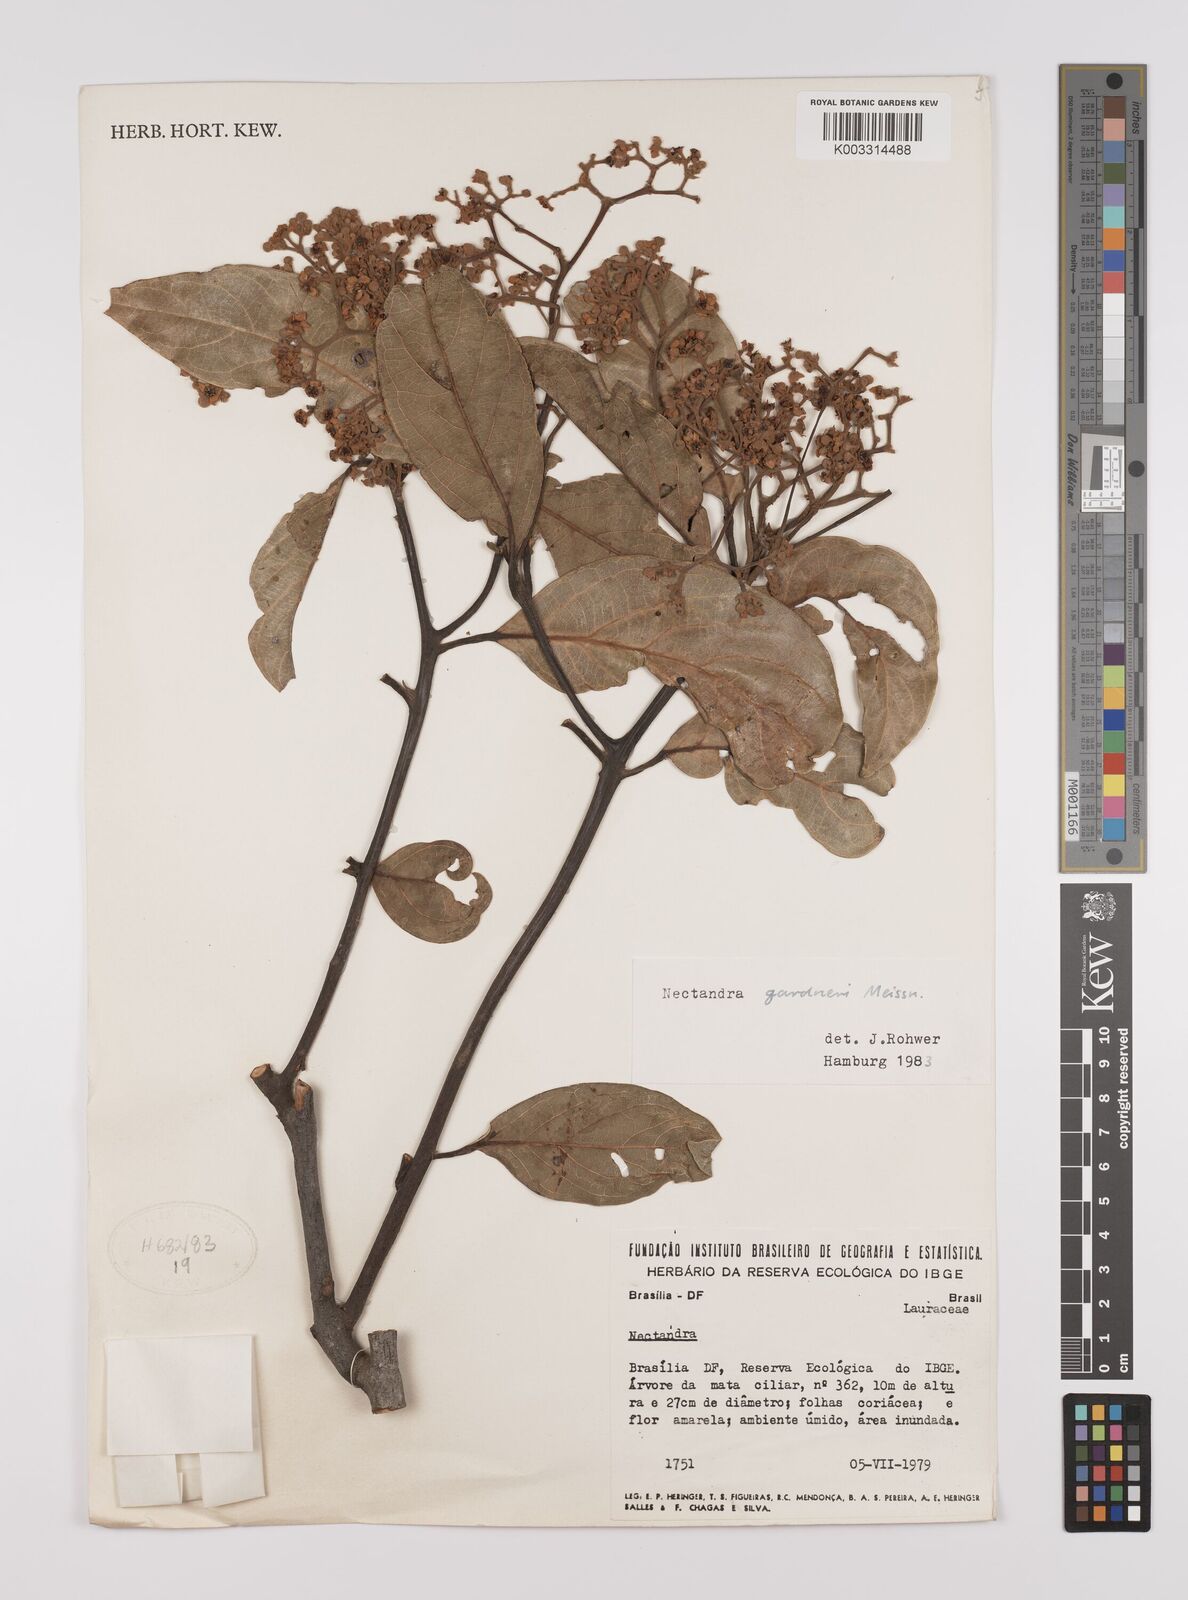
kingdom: Plantae
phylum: Tracheophyta
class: Magnoliopsida
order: Laurales
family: Lauraceae
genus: Nectandra
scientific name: Nectandra gardneri
